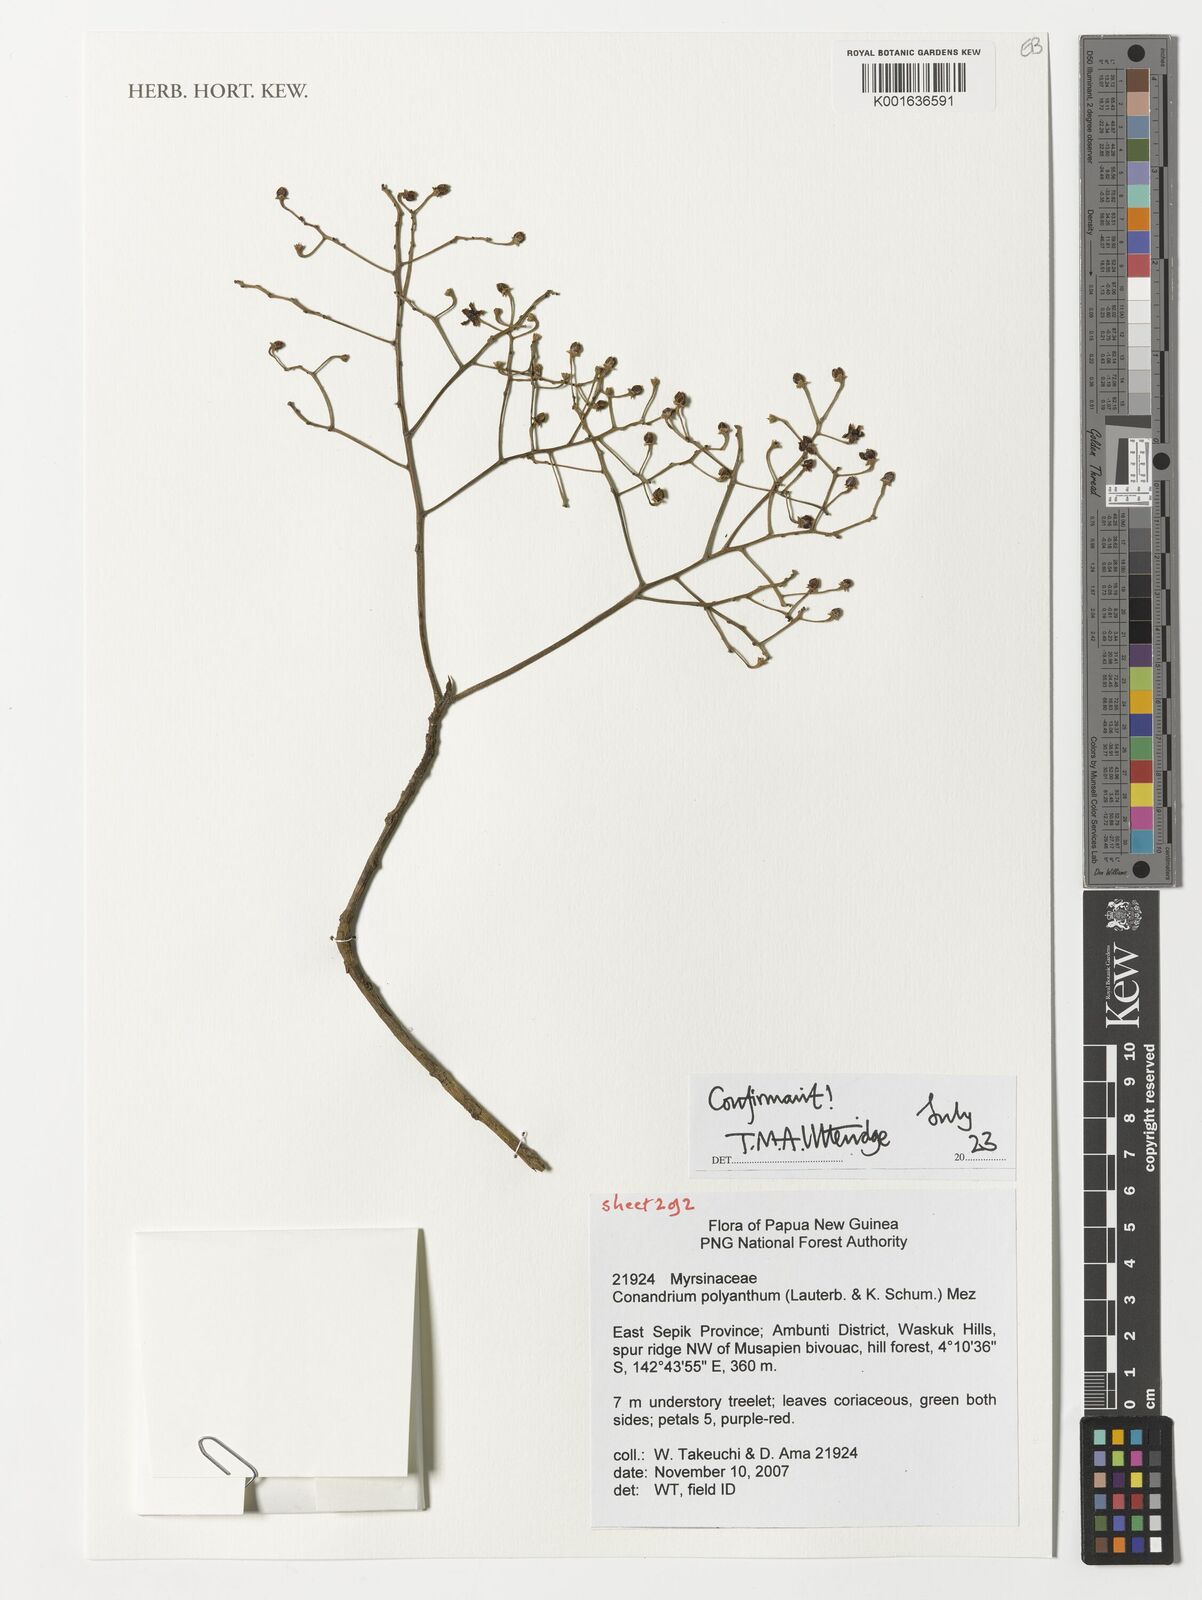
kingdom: Plantae
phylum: Tracheophyta
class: Magnoliopsida
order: Ericales
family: Primulaceae
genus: Conandrium
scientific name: Conandrium polyanthum
